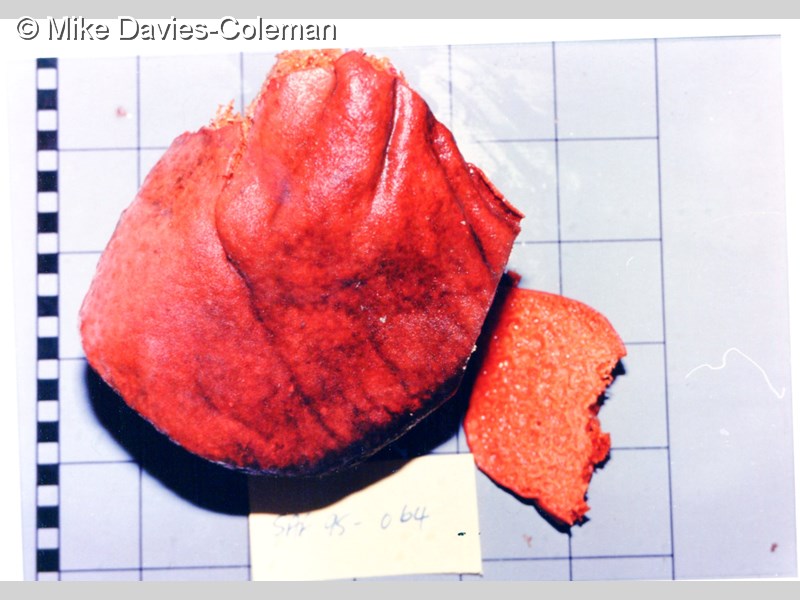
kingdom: Animalia
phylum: Porifera
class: Demospongiae
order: Clionaida
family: Clionaidae
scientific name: Clionaidae
